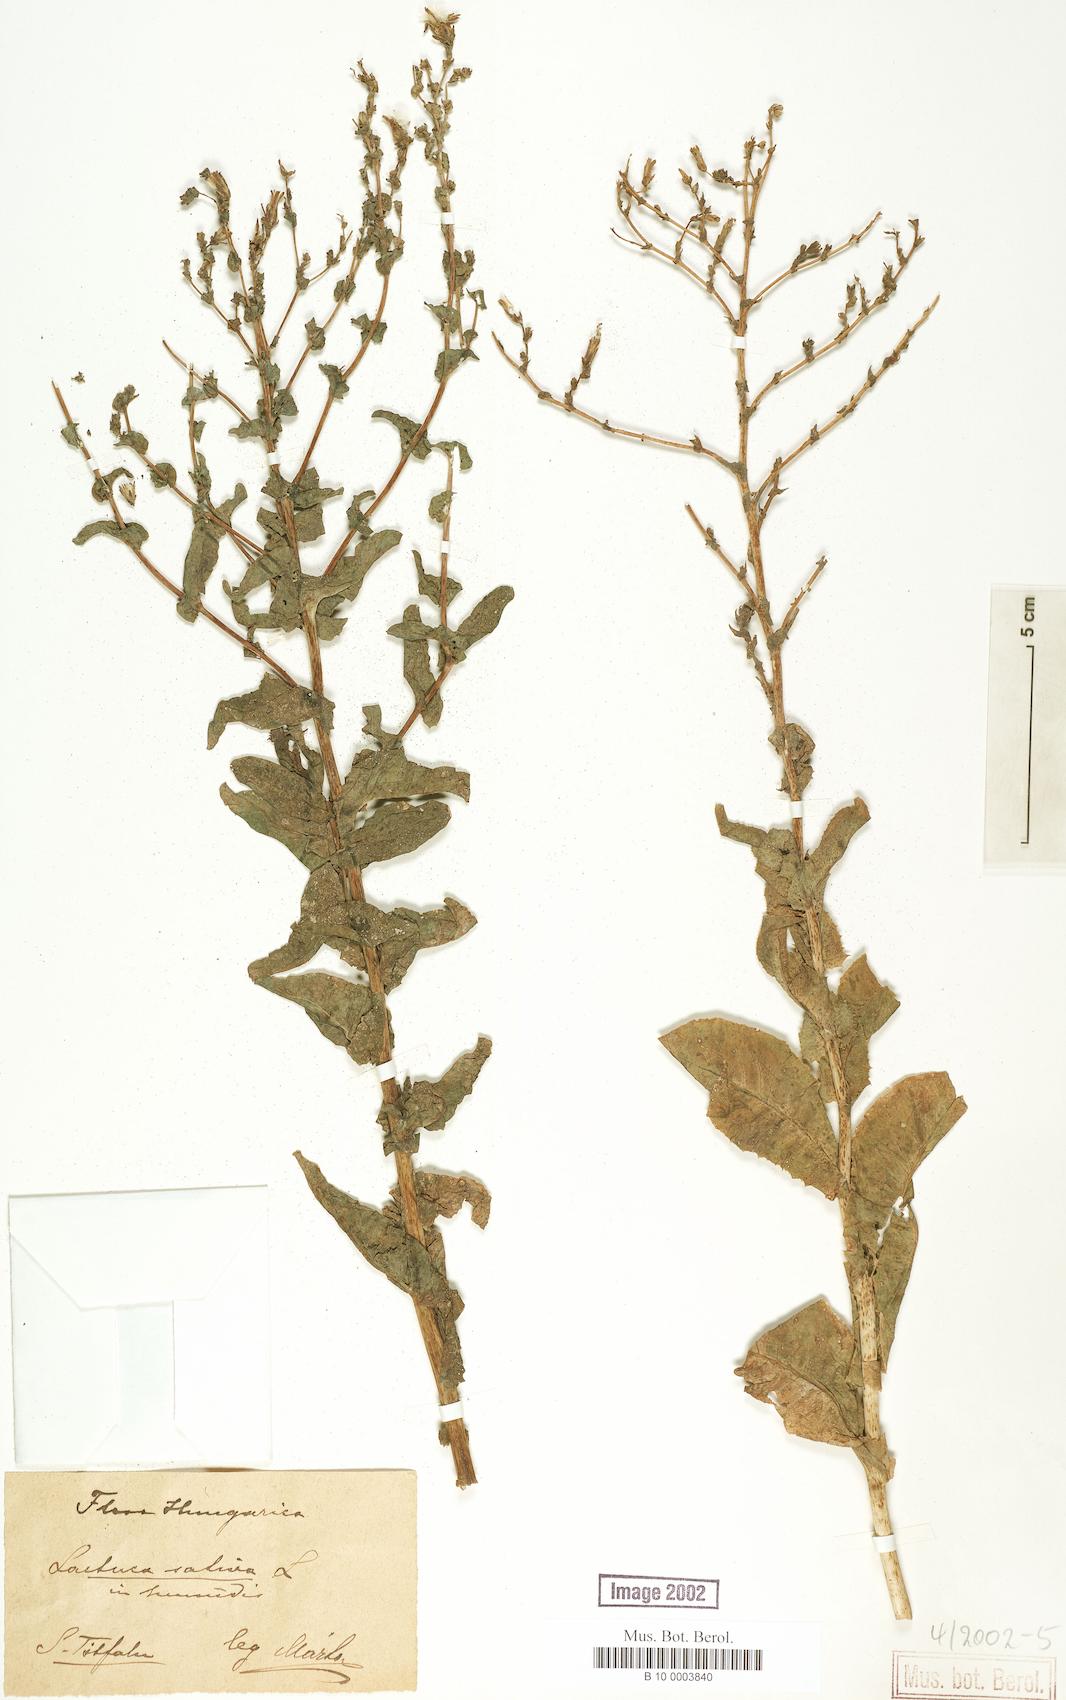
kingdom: Plantae
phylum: Tracheophyta
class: Magnoliopsida
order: Asterales
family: Asteraceae
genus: Lactuca
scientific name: Lactuca sativa
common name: Garden lettuce
